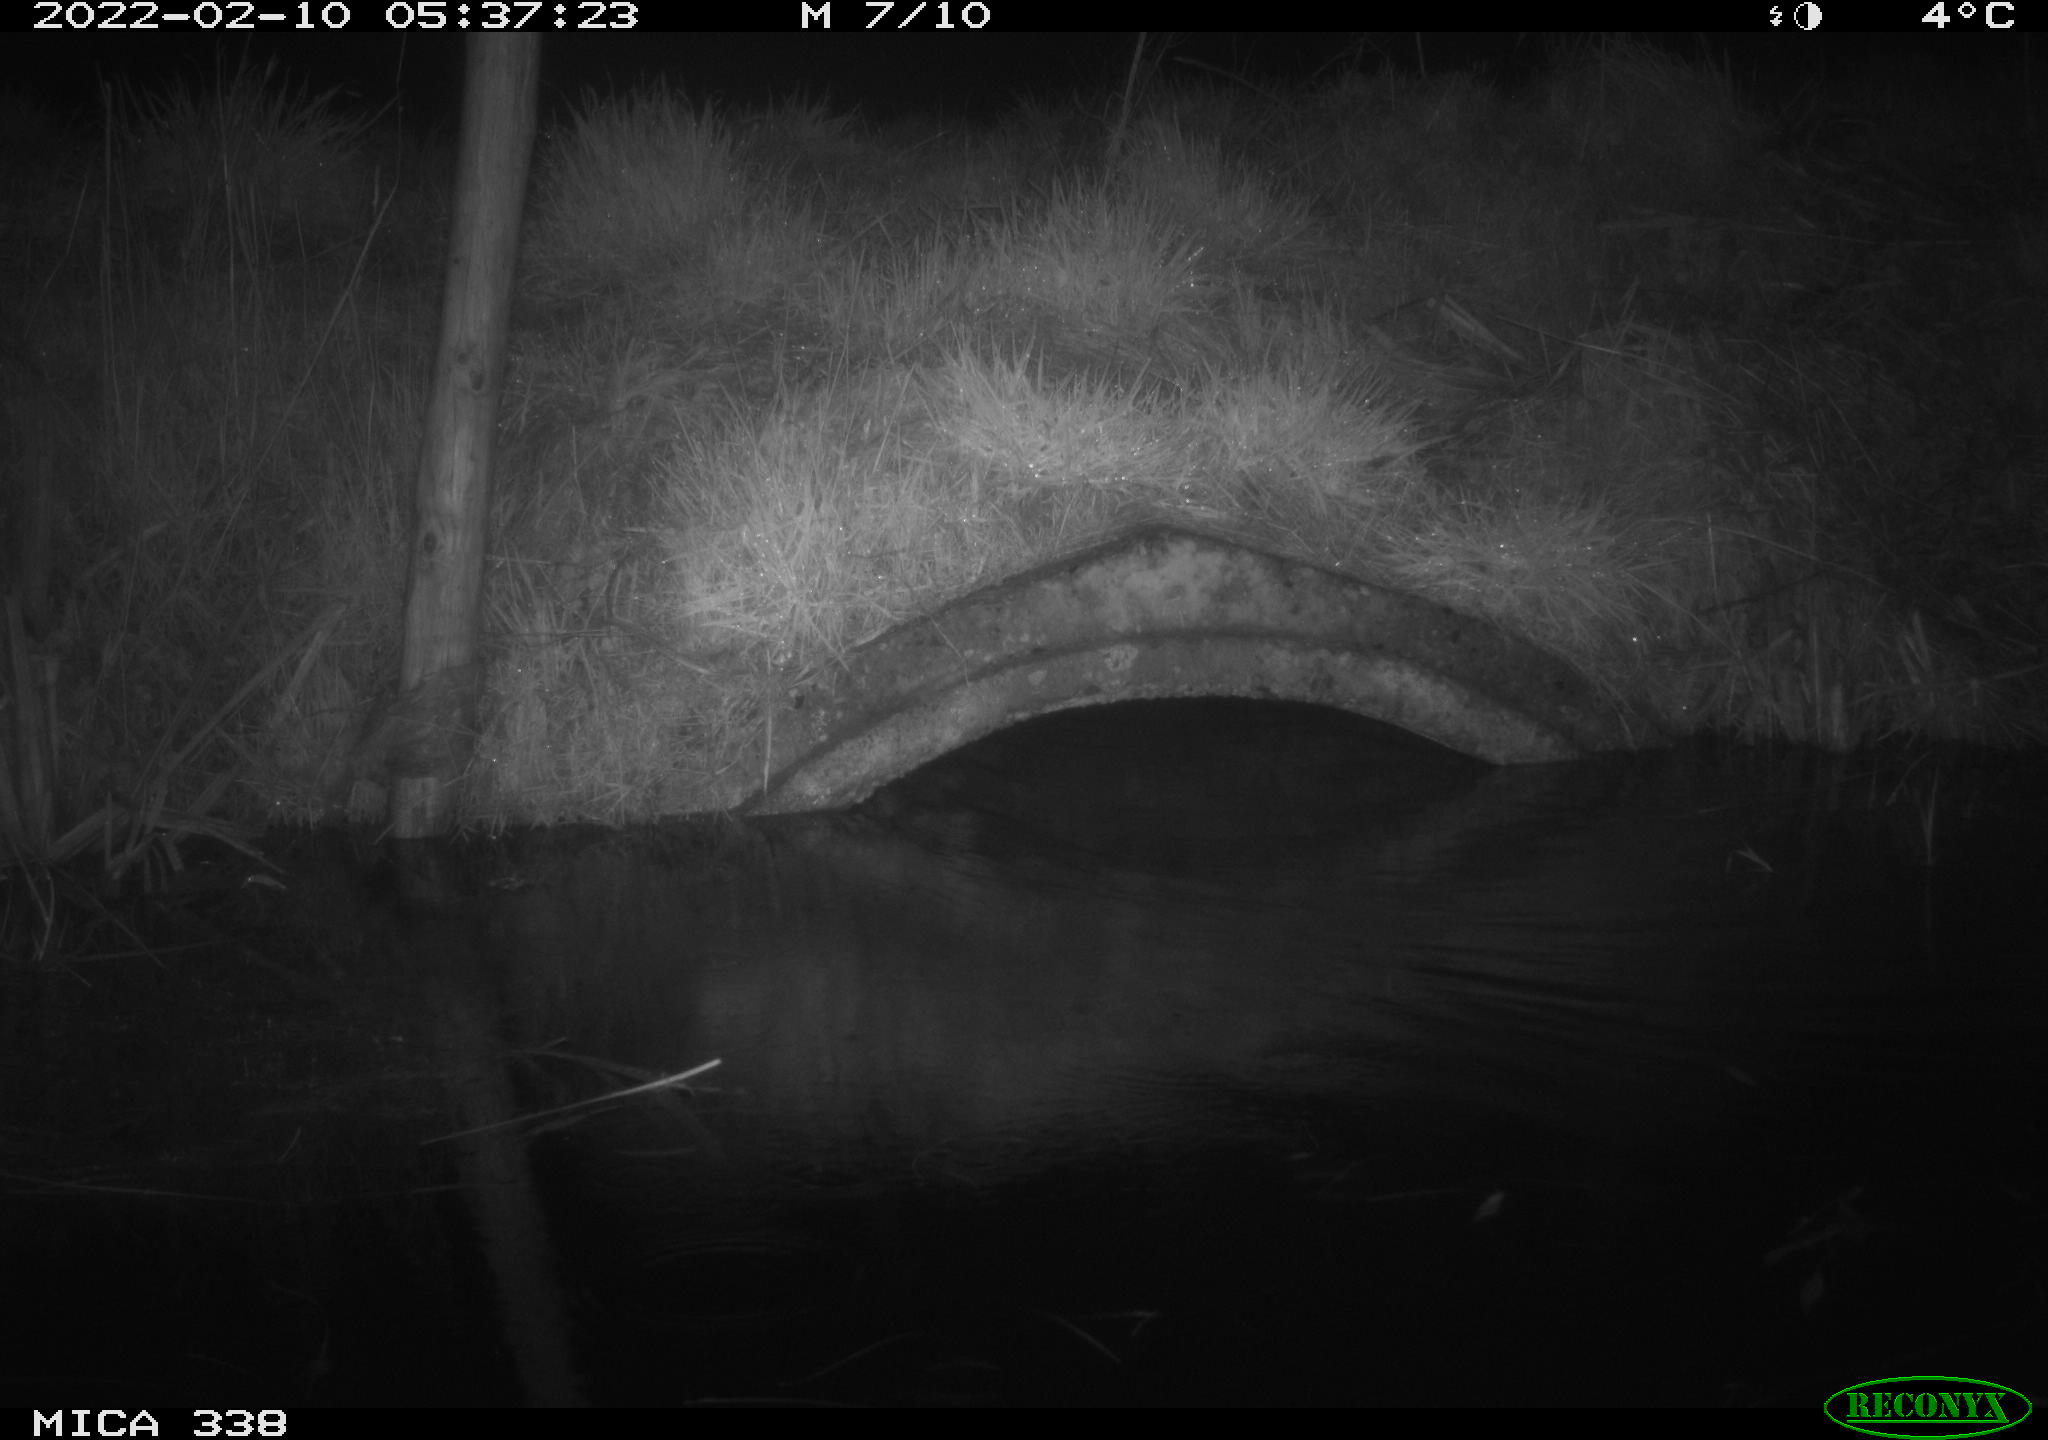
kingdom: Animalia
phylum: Chordata
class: Mammalia
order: Rodentia
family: Muridae
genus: Rattus
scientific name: Rattus norvegicus
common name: Brown rat
